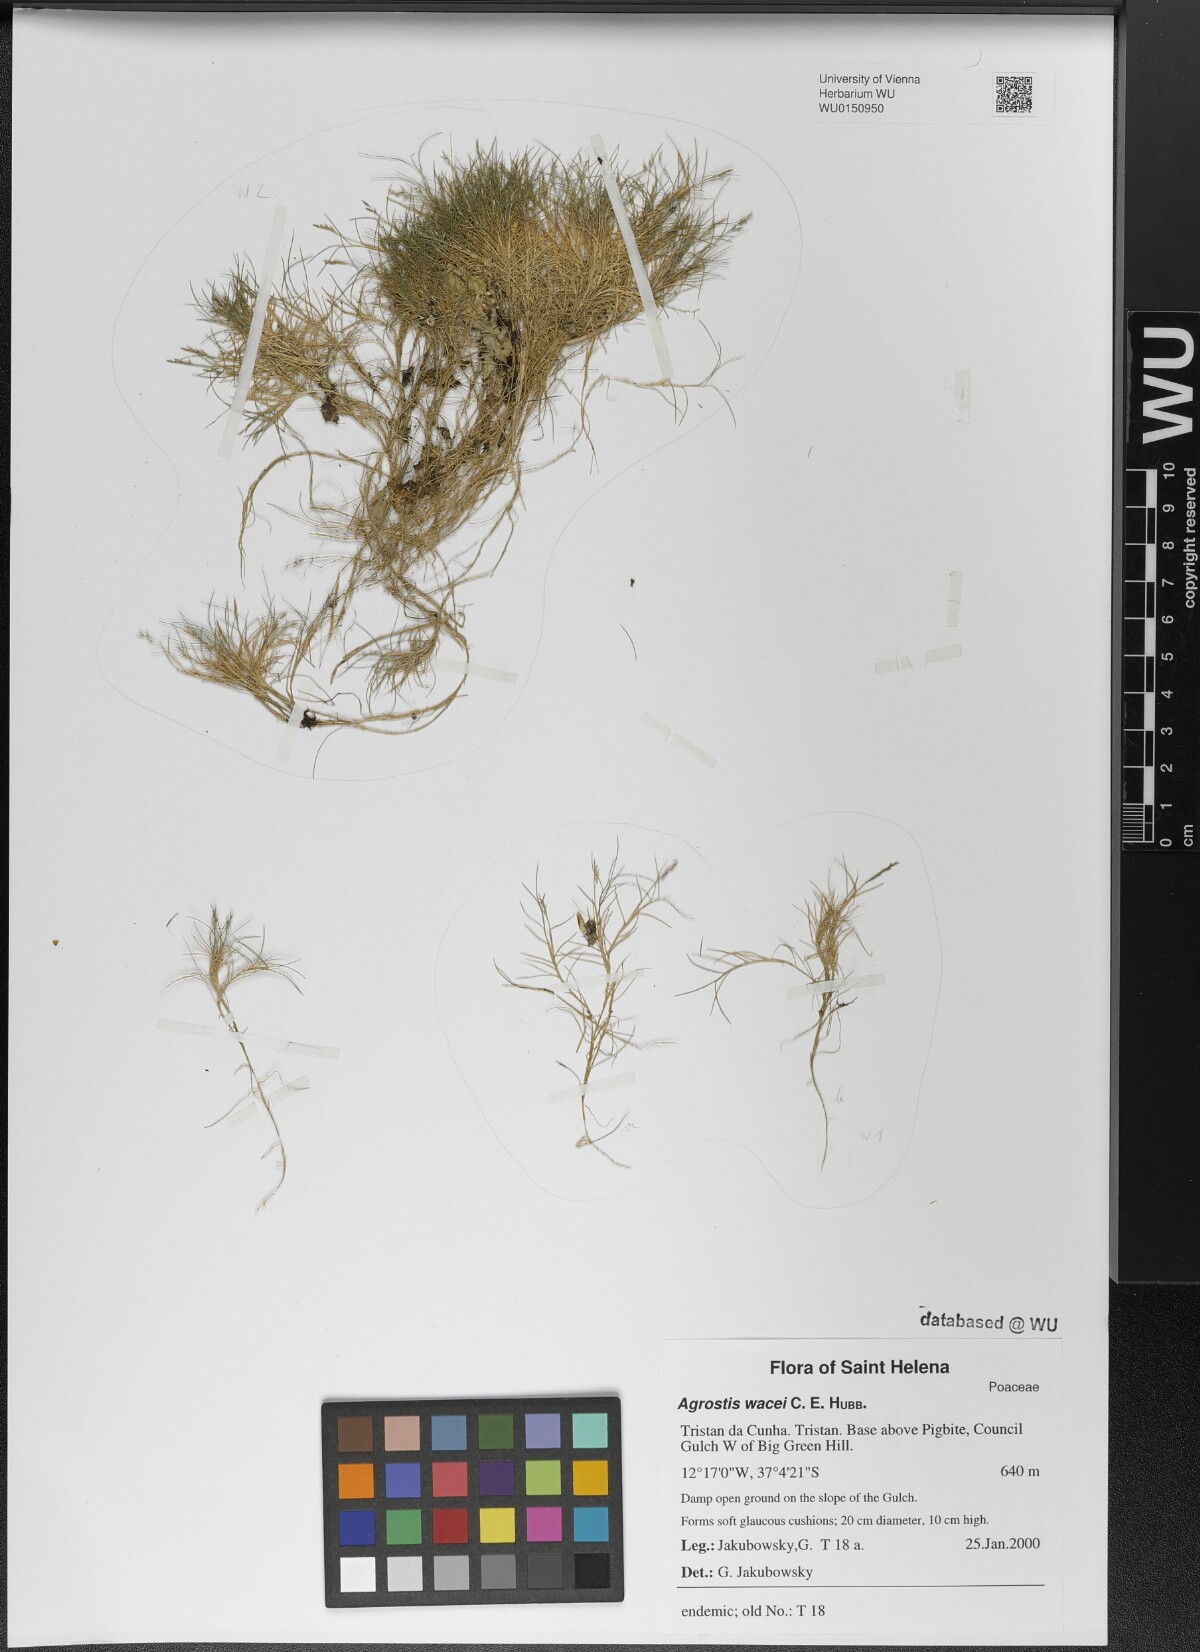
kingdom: Plantae
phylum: Tracheophyta
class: Liliopsida
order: Poales
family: Poaceae
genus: Agrostis
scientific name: Agrostis wacei
